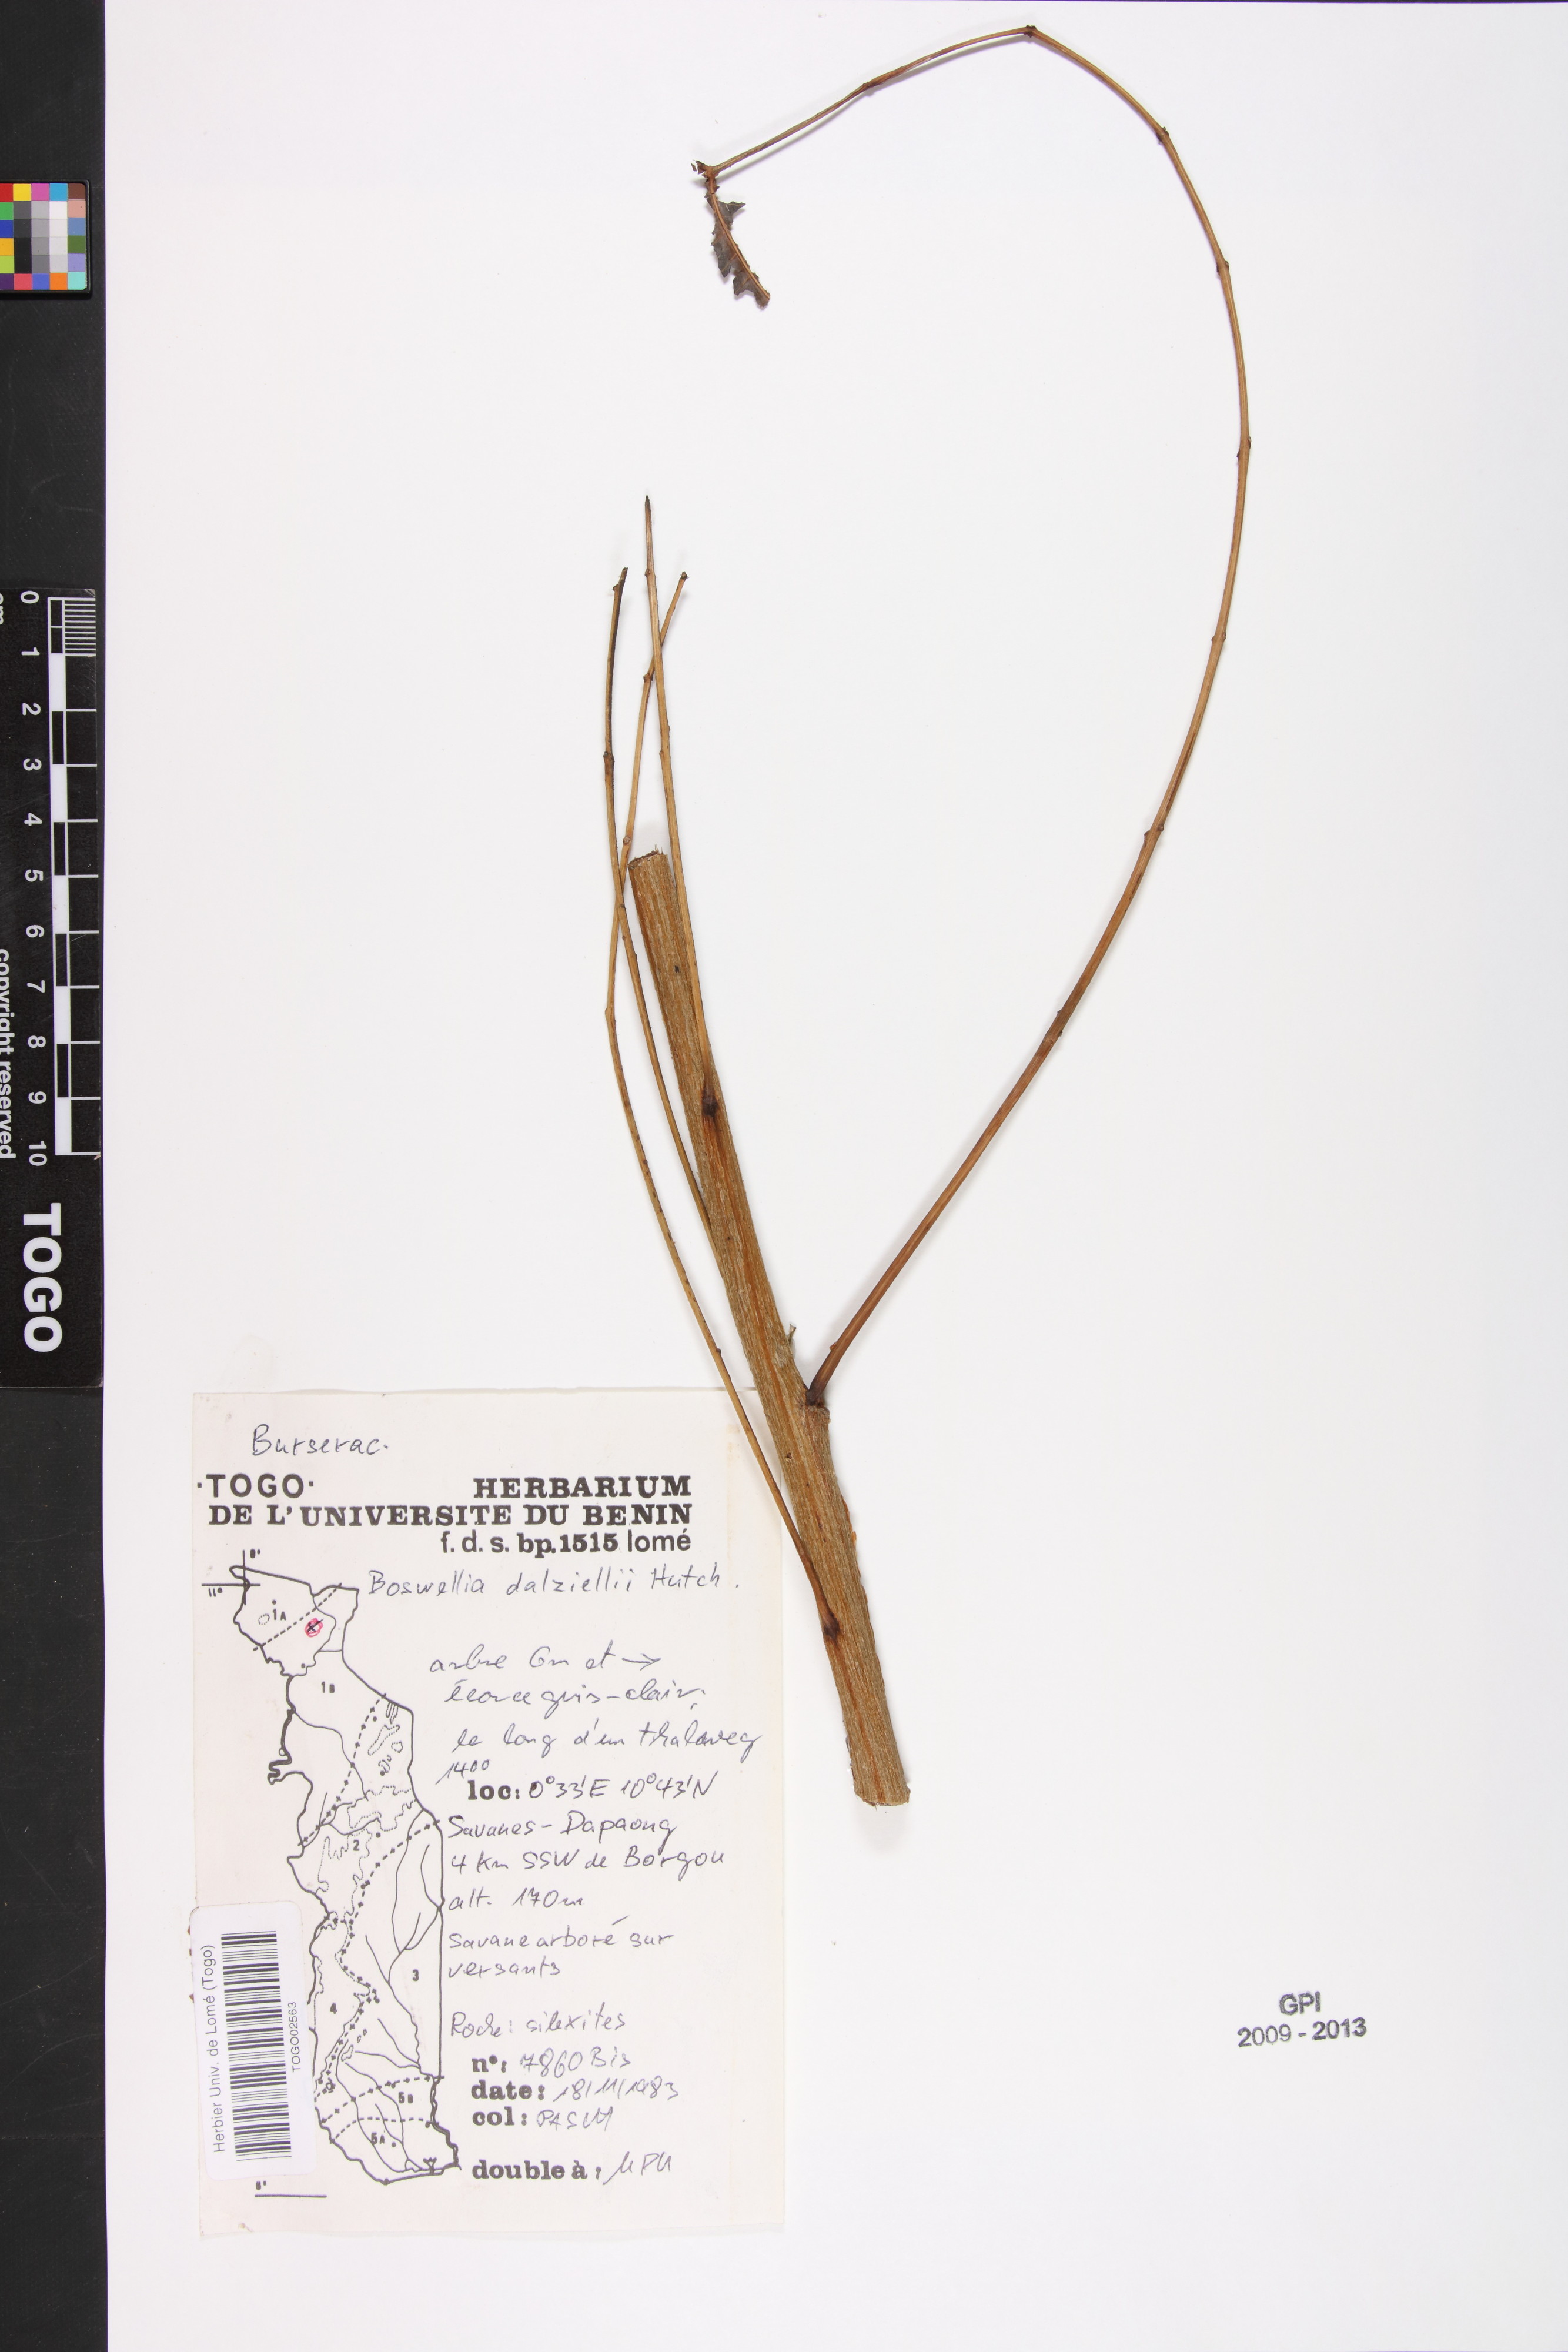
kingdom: Plantae
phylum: Tracheophyta
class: Magnoliopsida
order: Sapindales
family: Burseraceae
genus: Boswellia
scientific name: Boswellia dalzielii
